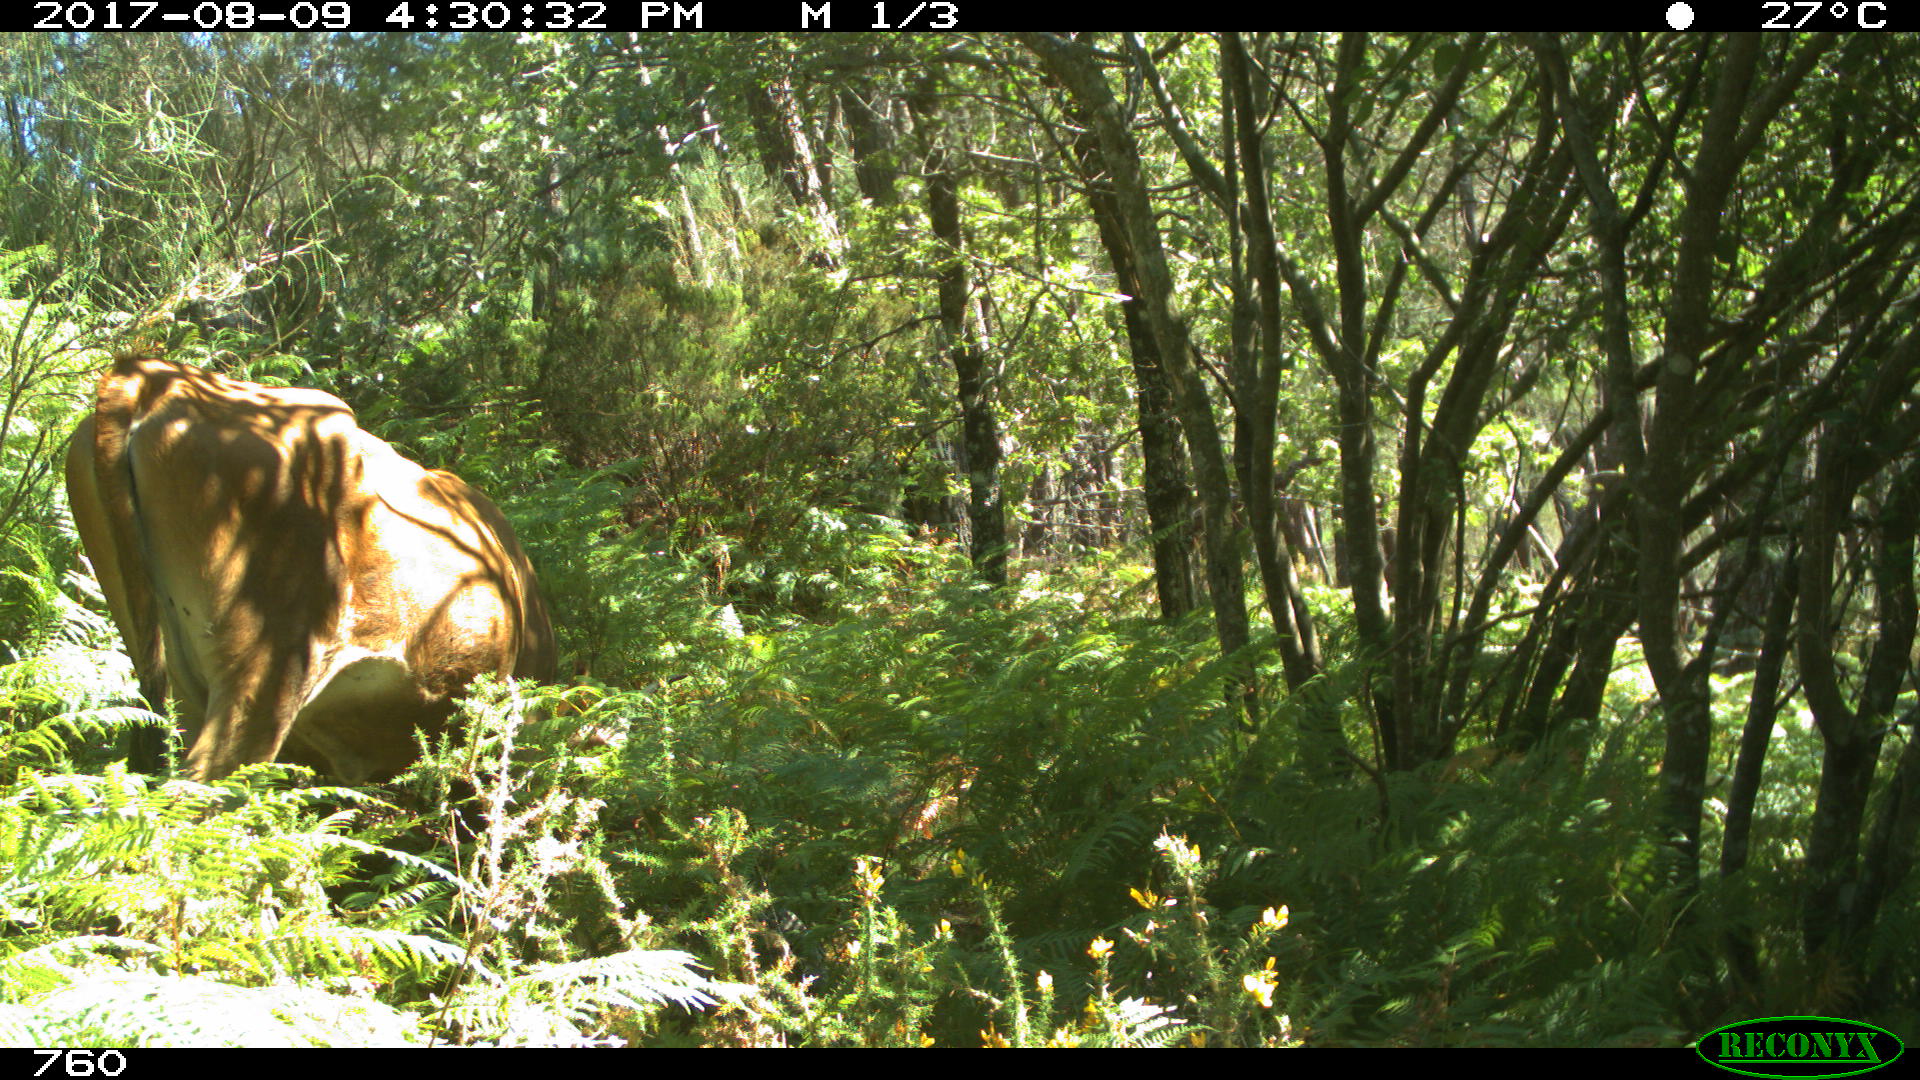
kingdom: Animalia
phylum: Chordata
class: Mammalia
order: Artiodactyla
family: Bovidae
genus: Bos
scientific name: Bos taurus
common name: Domesticated cattle
